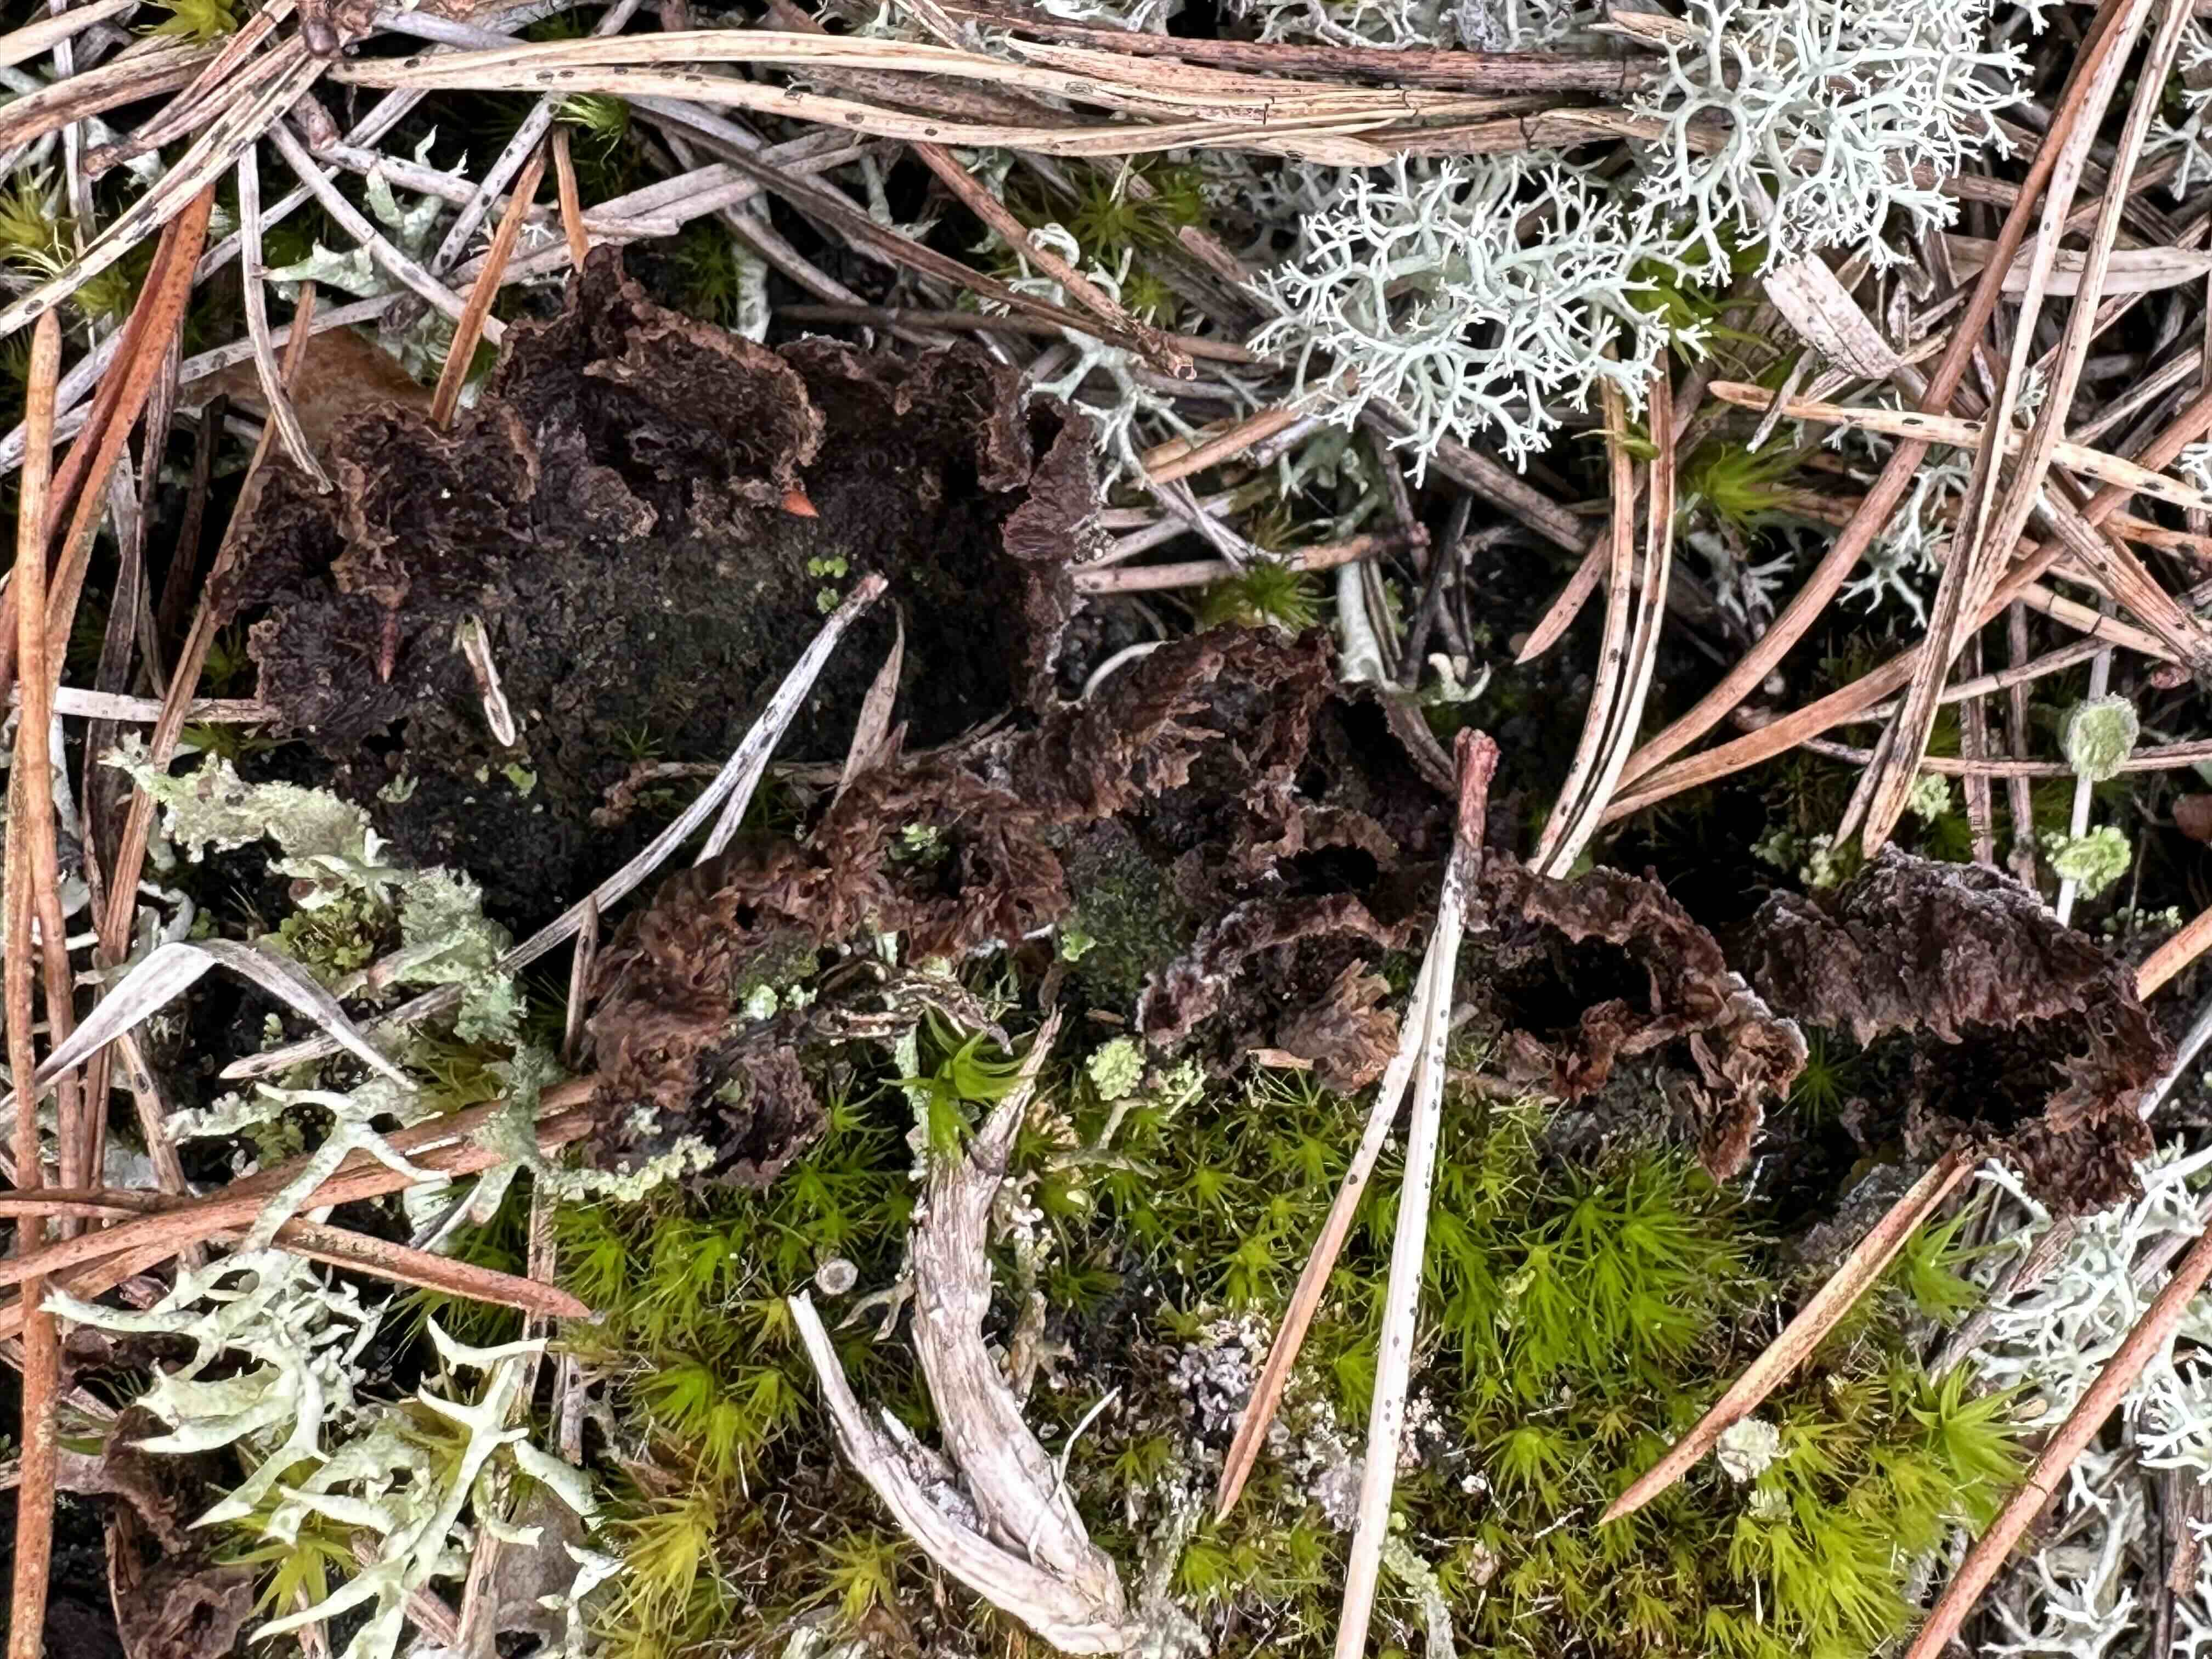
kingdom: Fungi
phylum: Basidiomycota
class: Agaricomycetes
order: Thelephorales
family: Thelephoraceae
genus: Thelephora
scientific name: Thelephora terrestris
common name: fliget frynsesvamp
